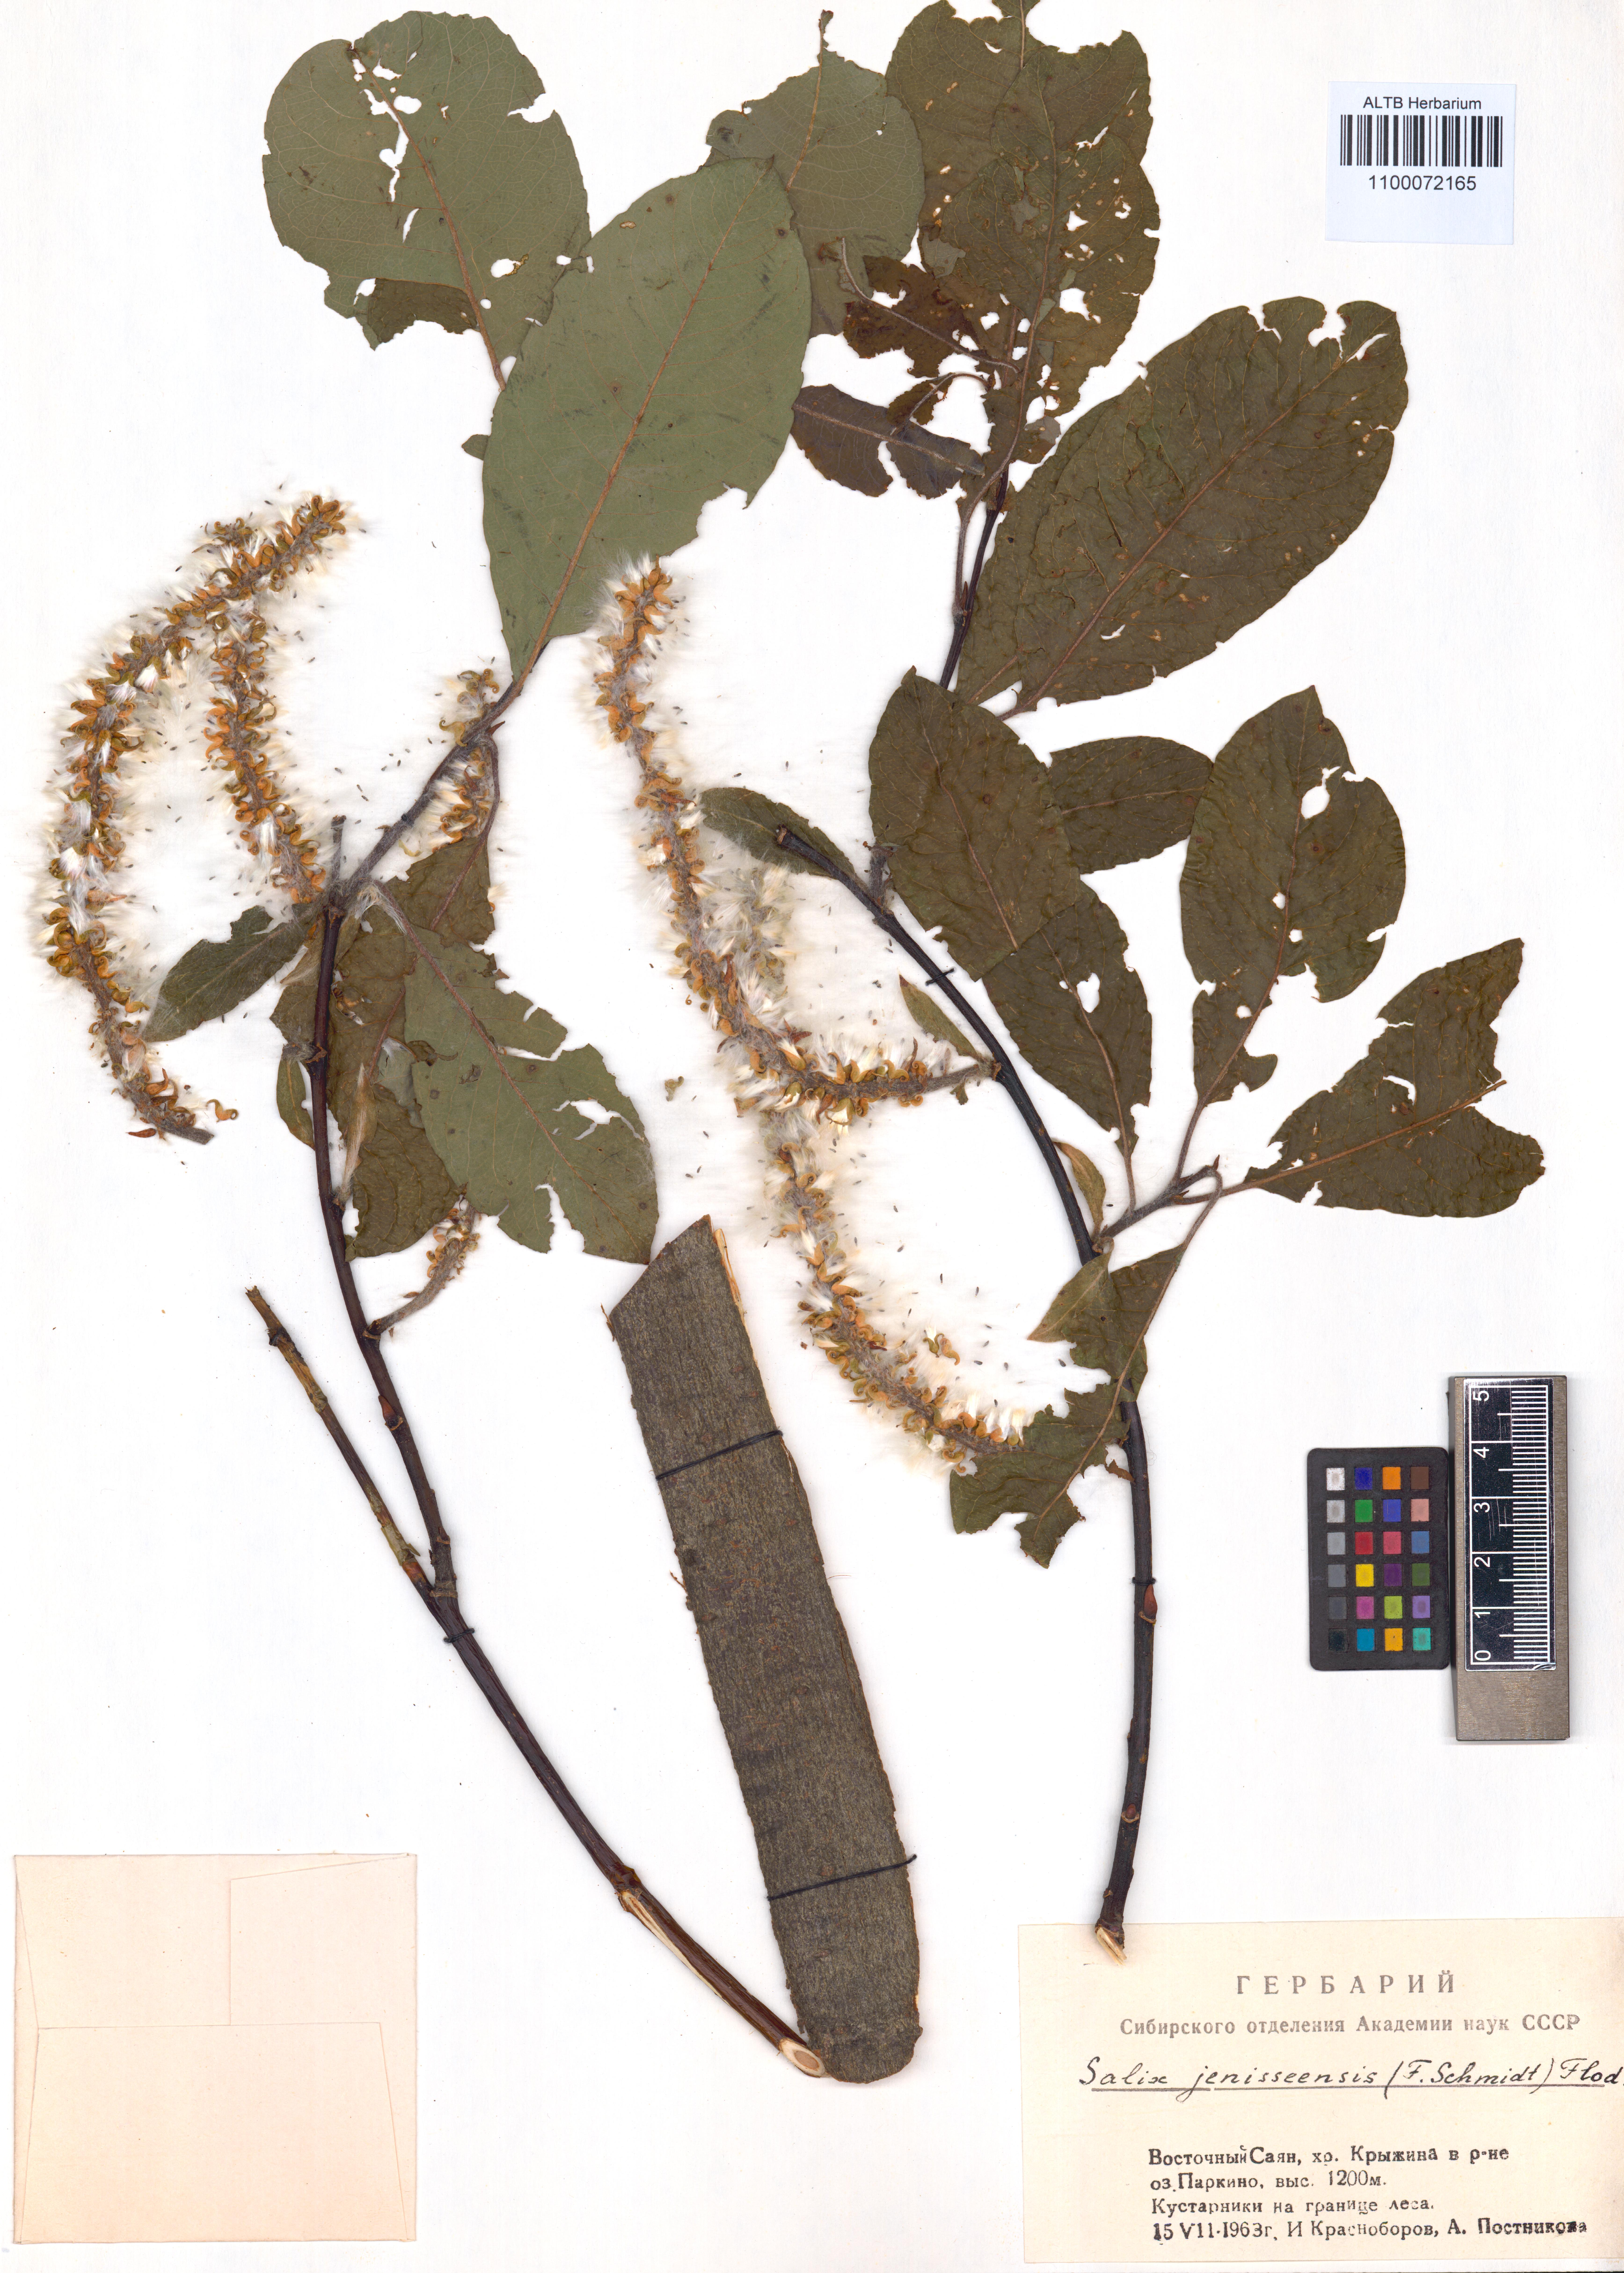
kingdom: Plantae
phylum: Tracheophyta
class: Magnoliopsida
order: Malpighiales
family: Salicaceae
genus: Salix
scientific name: Salix jenisseensis
